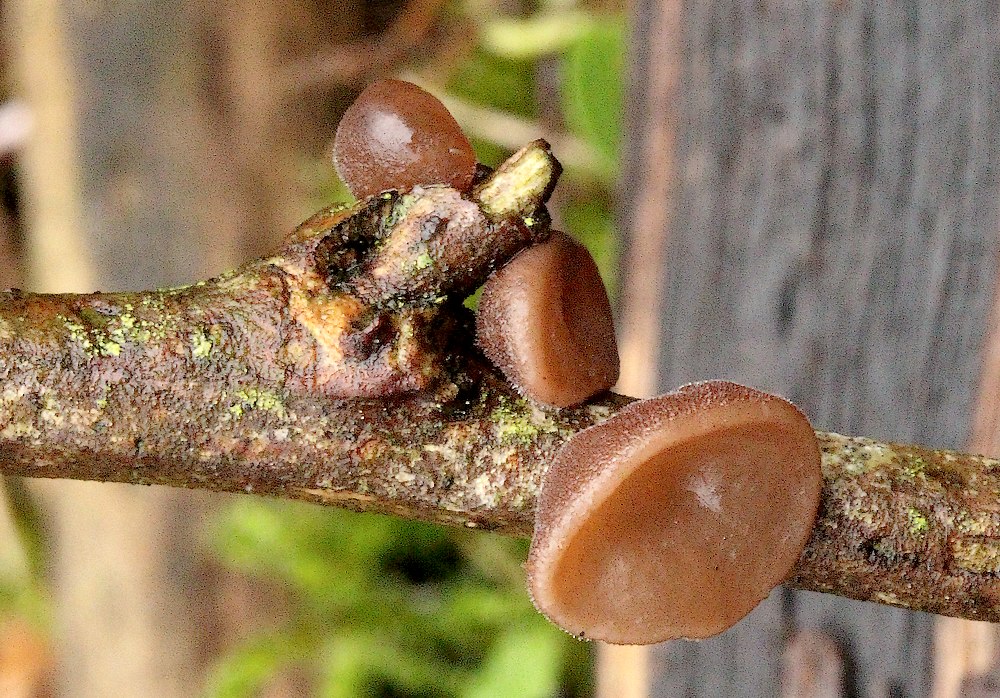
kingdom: Fungi
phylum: Basidiomycota
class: Agaricomycetes
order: Auriculariales
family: Auriculariaceae
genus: Auricularia
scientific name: Auricularia auricula-judae
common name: almindelig judasøre
